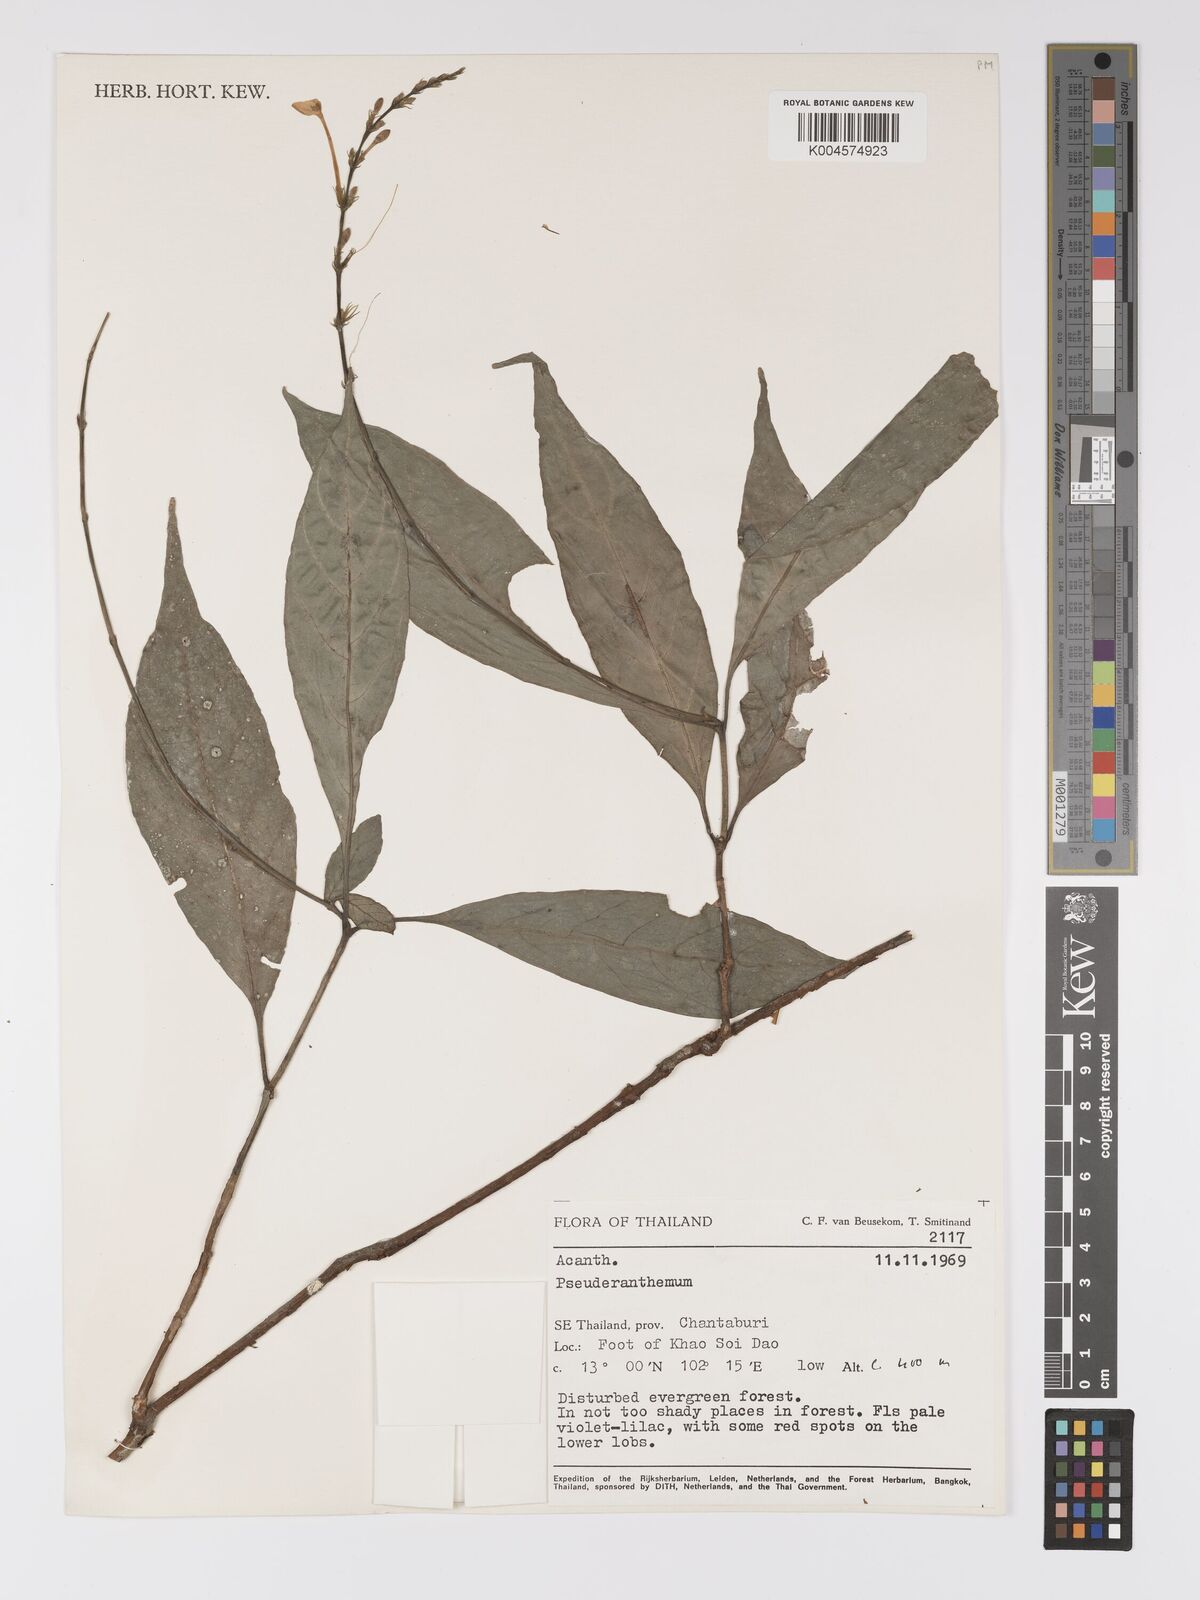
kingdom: Plantae
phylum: Tracheophyta
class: Magnoliopsida
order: Lamiales
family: Acanthaceae
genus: Pseuderanthemum
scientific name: Pseuderanthemum
